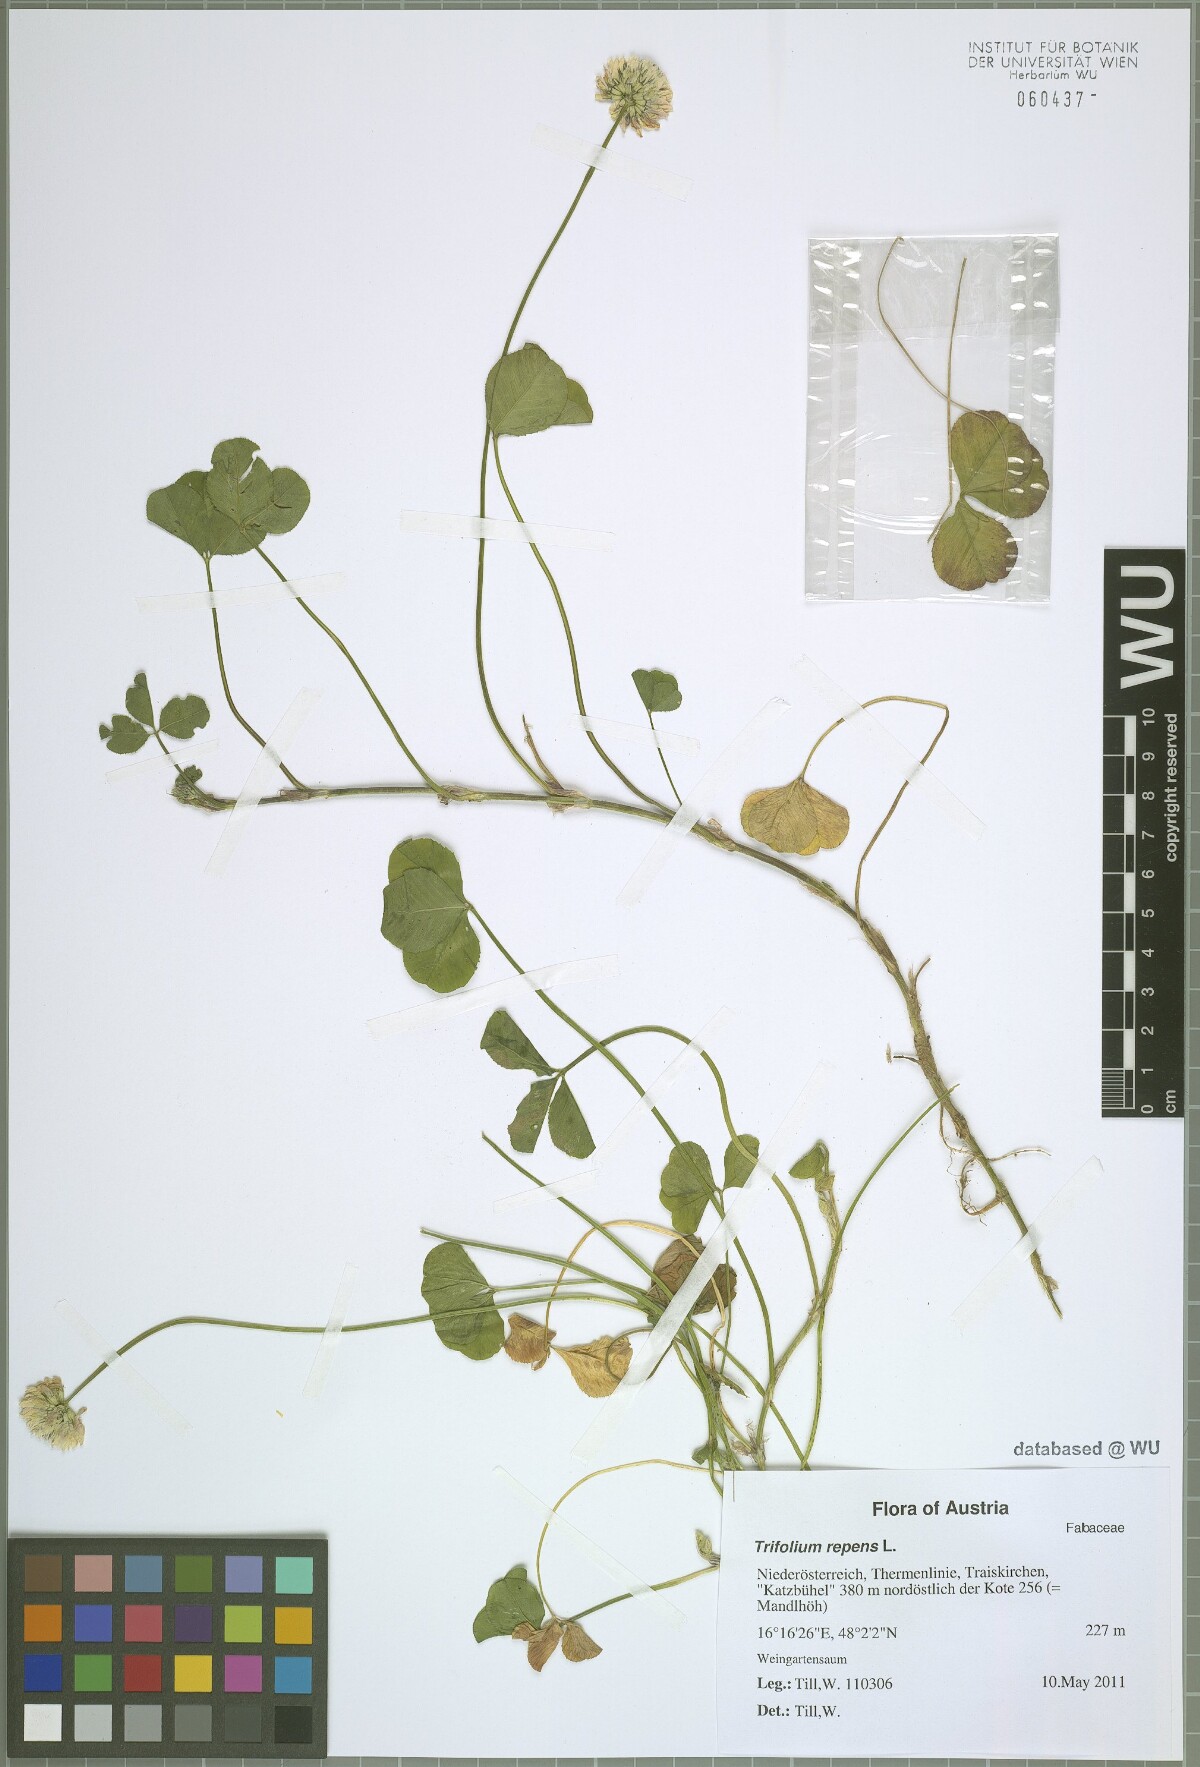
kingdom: Plantae
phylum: Tracheophyta
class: Magnoliopsida
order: Fabales
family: Fabaceae
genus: Trifolium
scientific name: Trifolium repens
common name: White clover
